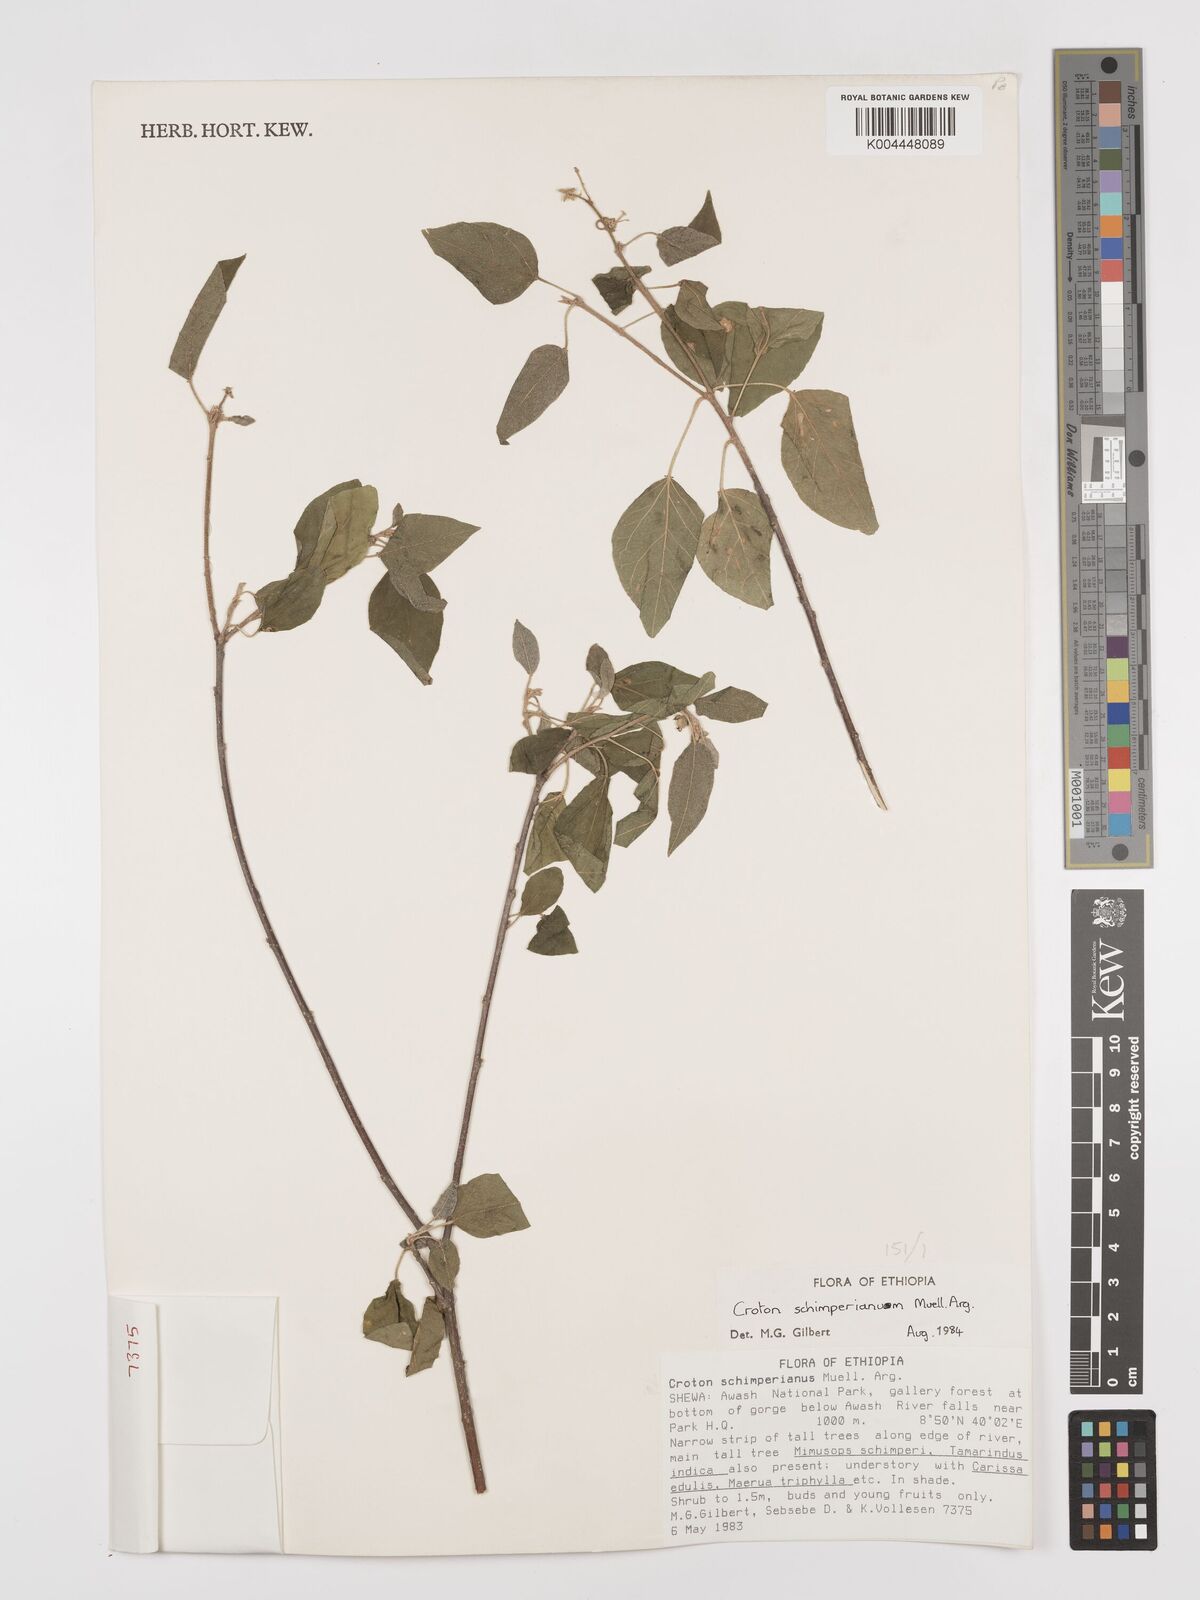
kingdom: Plantae
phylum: Tracheophyta
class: Magnoliopsida
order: Malpighiales
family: Euphorbiaceae
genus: Croton
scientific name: Croton schimperianus
